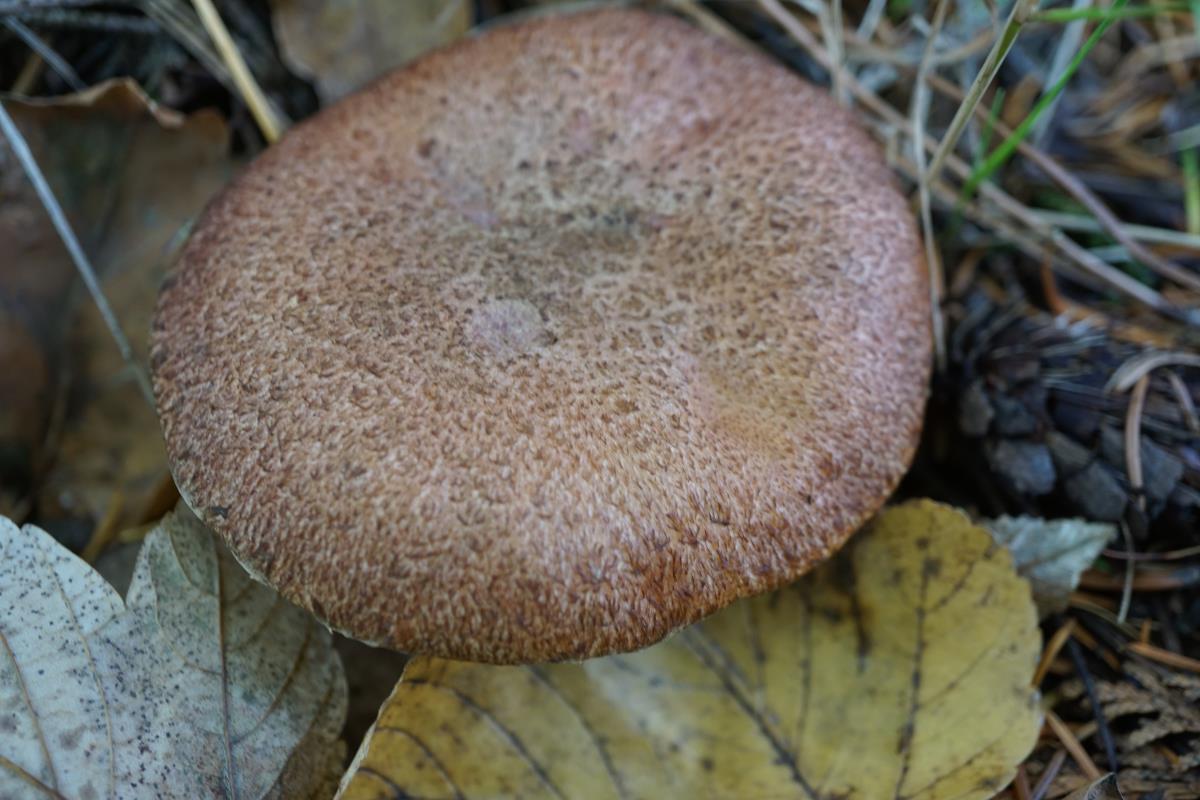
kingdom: Fungi
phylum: Basidiomycota
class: Agaricomycetes
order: Boletales
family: Suillaceae
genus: Suillus
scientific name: Suillus lakei
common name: Western painted suillus
